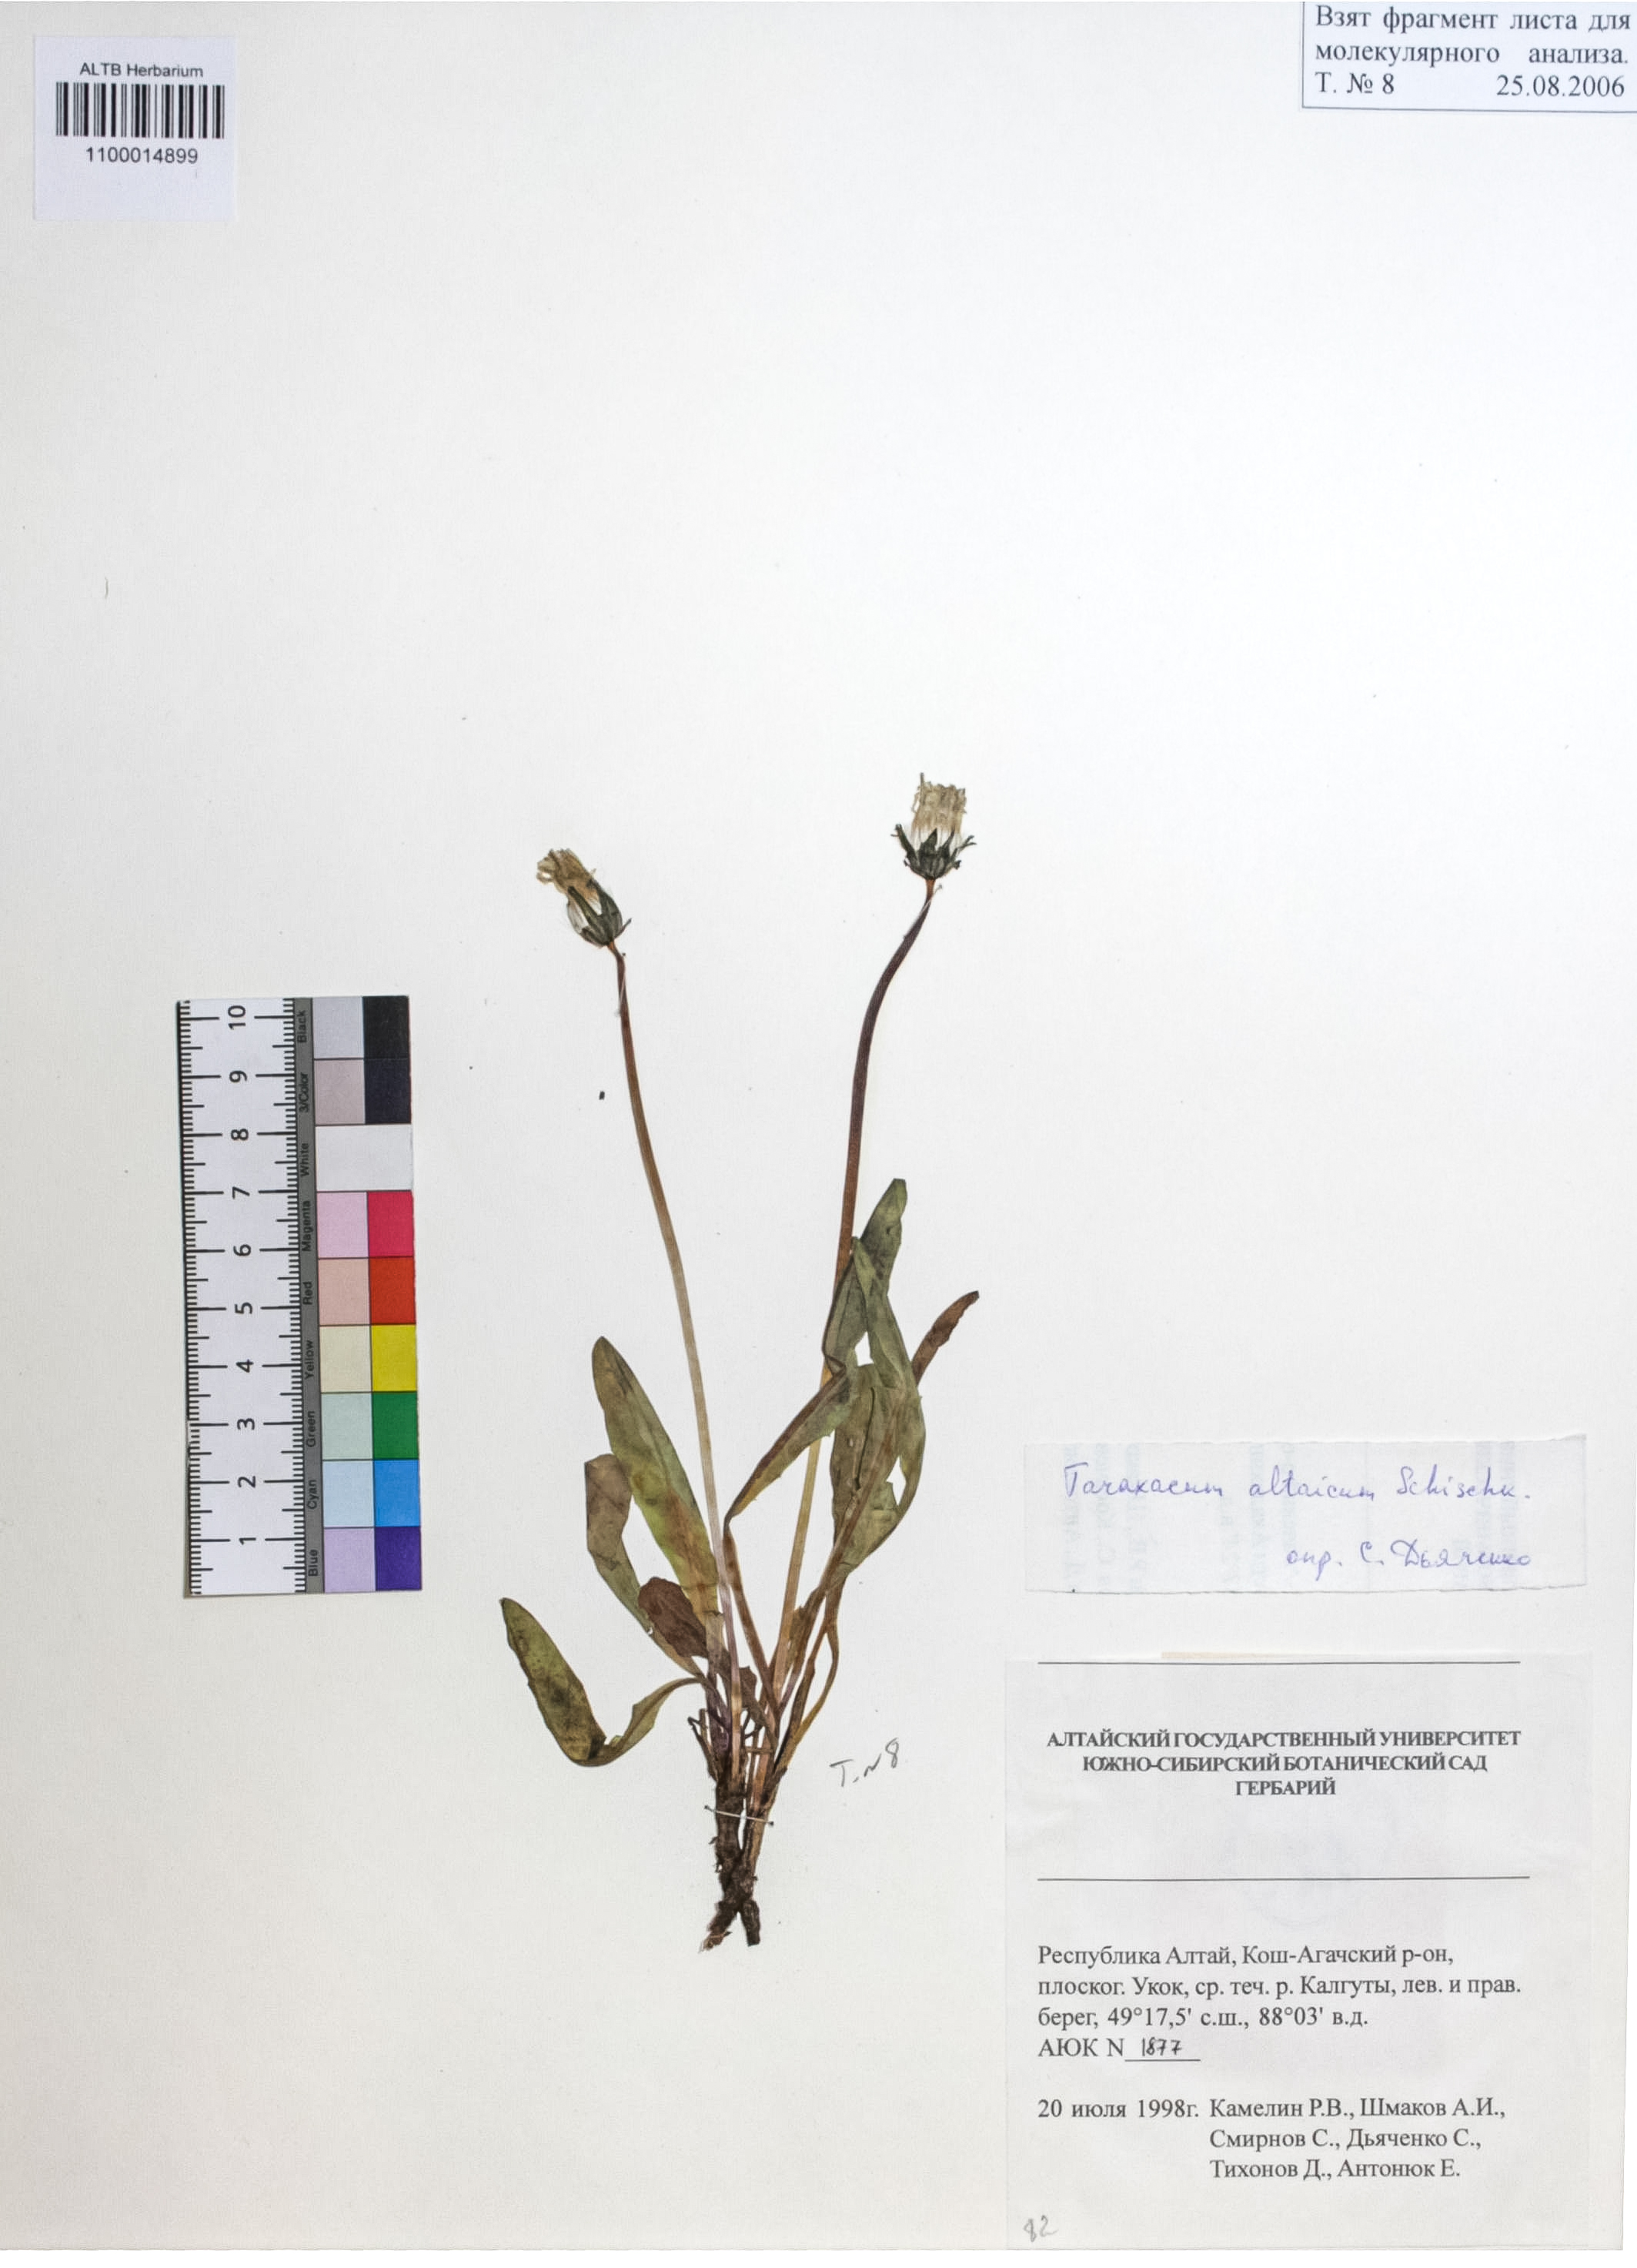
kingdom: Plantae
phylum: Tracheophyta
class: Magnoliopsida
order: Asterales
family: Asteraceae
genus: Taraxacum
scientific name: Taraxacum ceratophorum
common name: Horn-bearing dandelion
